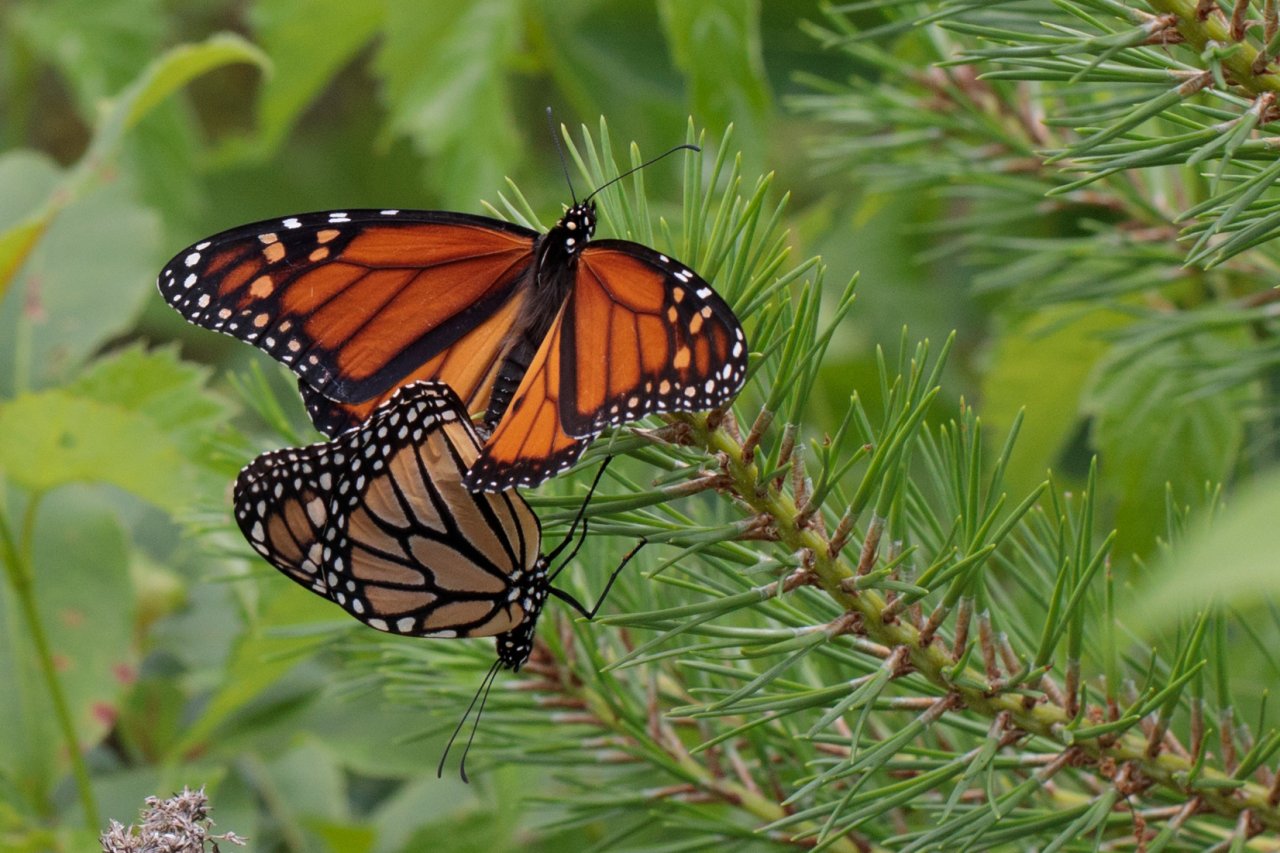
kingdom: Animalia
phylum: Arthropoda
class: Insecta
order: Lepidoptera
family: Nymphalidae
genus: Danaus
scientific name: Danaus plexippus
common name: Monarch
